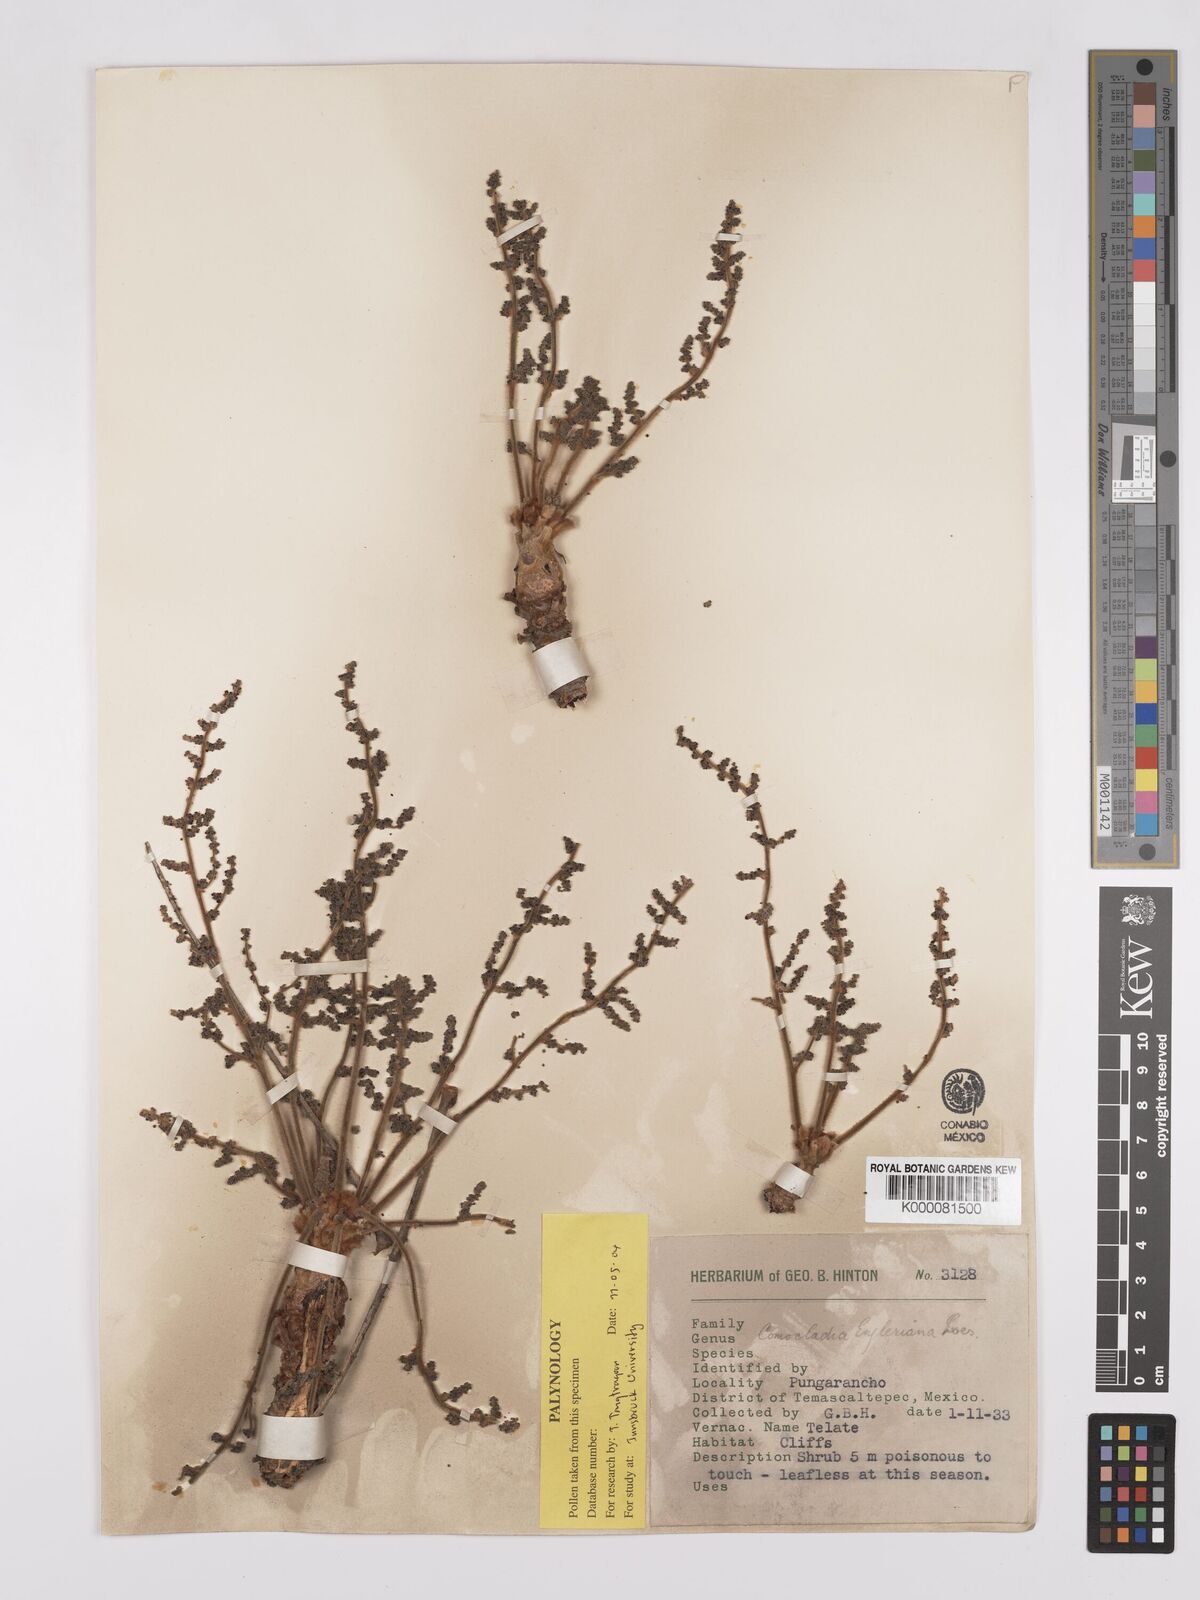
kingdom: Plantae
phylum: Tracheophyta
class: Magnoliopsida
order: Sapindales
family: Anacardiaceae
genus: Comocladia
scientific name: Comocladia
